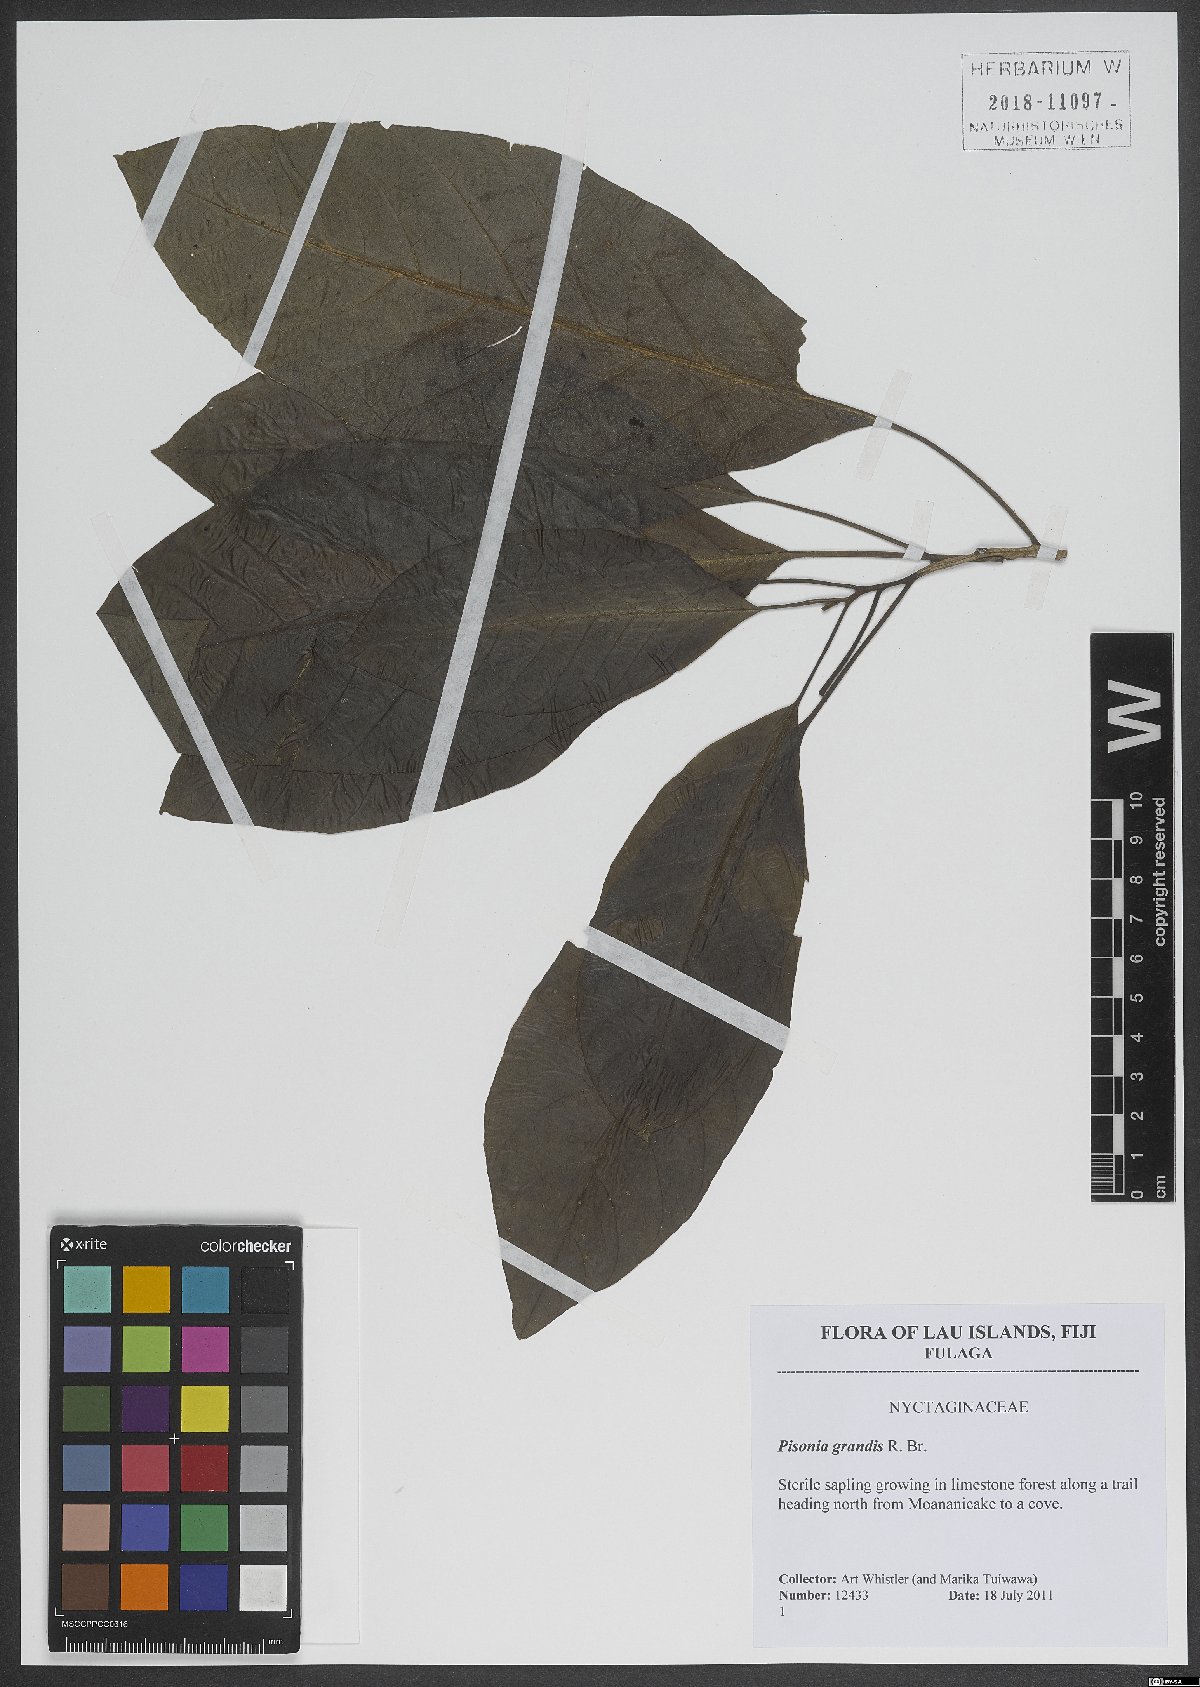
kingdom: Plantae
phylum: Tracheophyta
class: Magnoliopsida
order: Caryophyllales
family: Nyctaginaceae
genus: Ceodes
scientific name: Ceodes grandis
